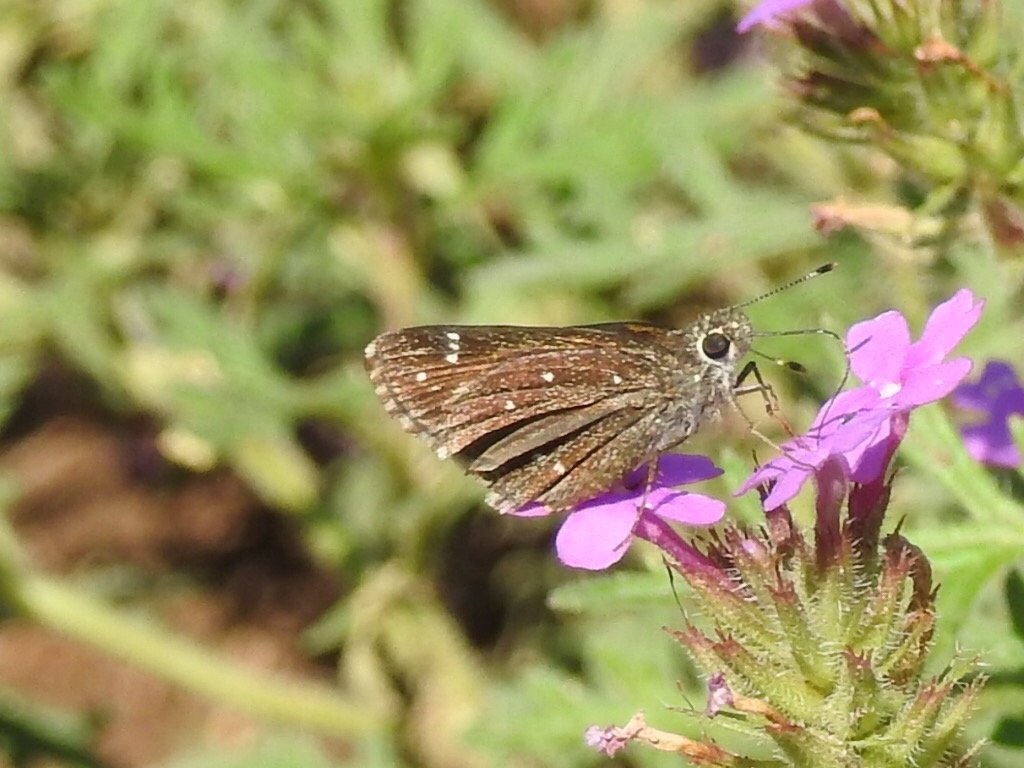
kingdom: Animalia
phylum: Arthropoda
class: Insecta
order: Lepidoptera
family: Hesperiidae
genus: Mastor
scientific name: Mastor exoteria
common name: Large Roadside-Skipper
